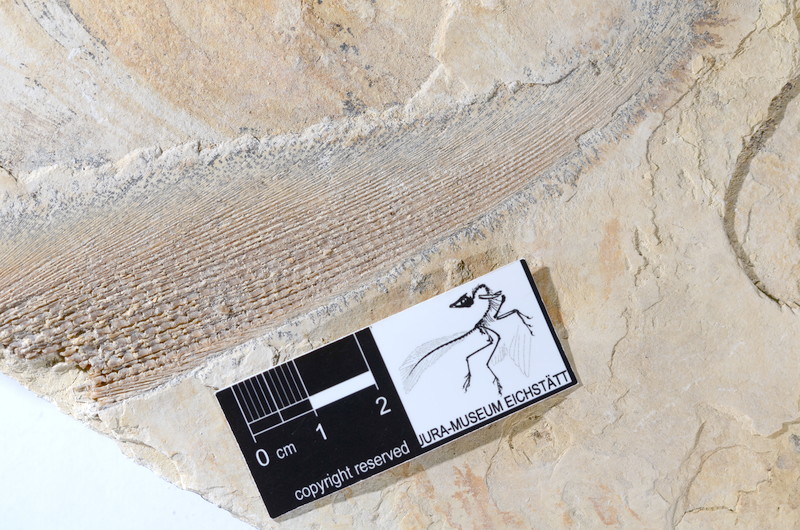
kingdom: Animalia
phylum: Chordata
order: Amiiformes
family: Caturidae
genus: Caturus
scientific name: Caturus
